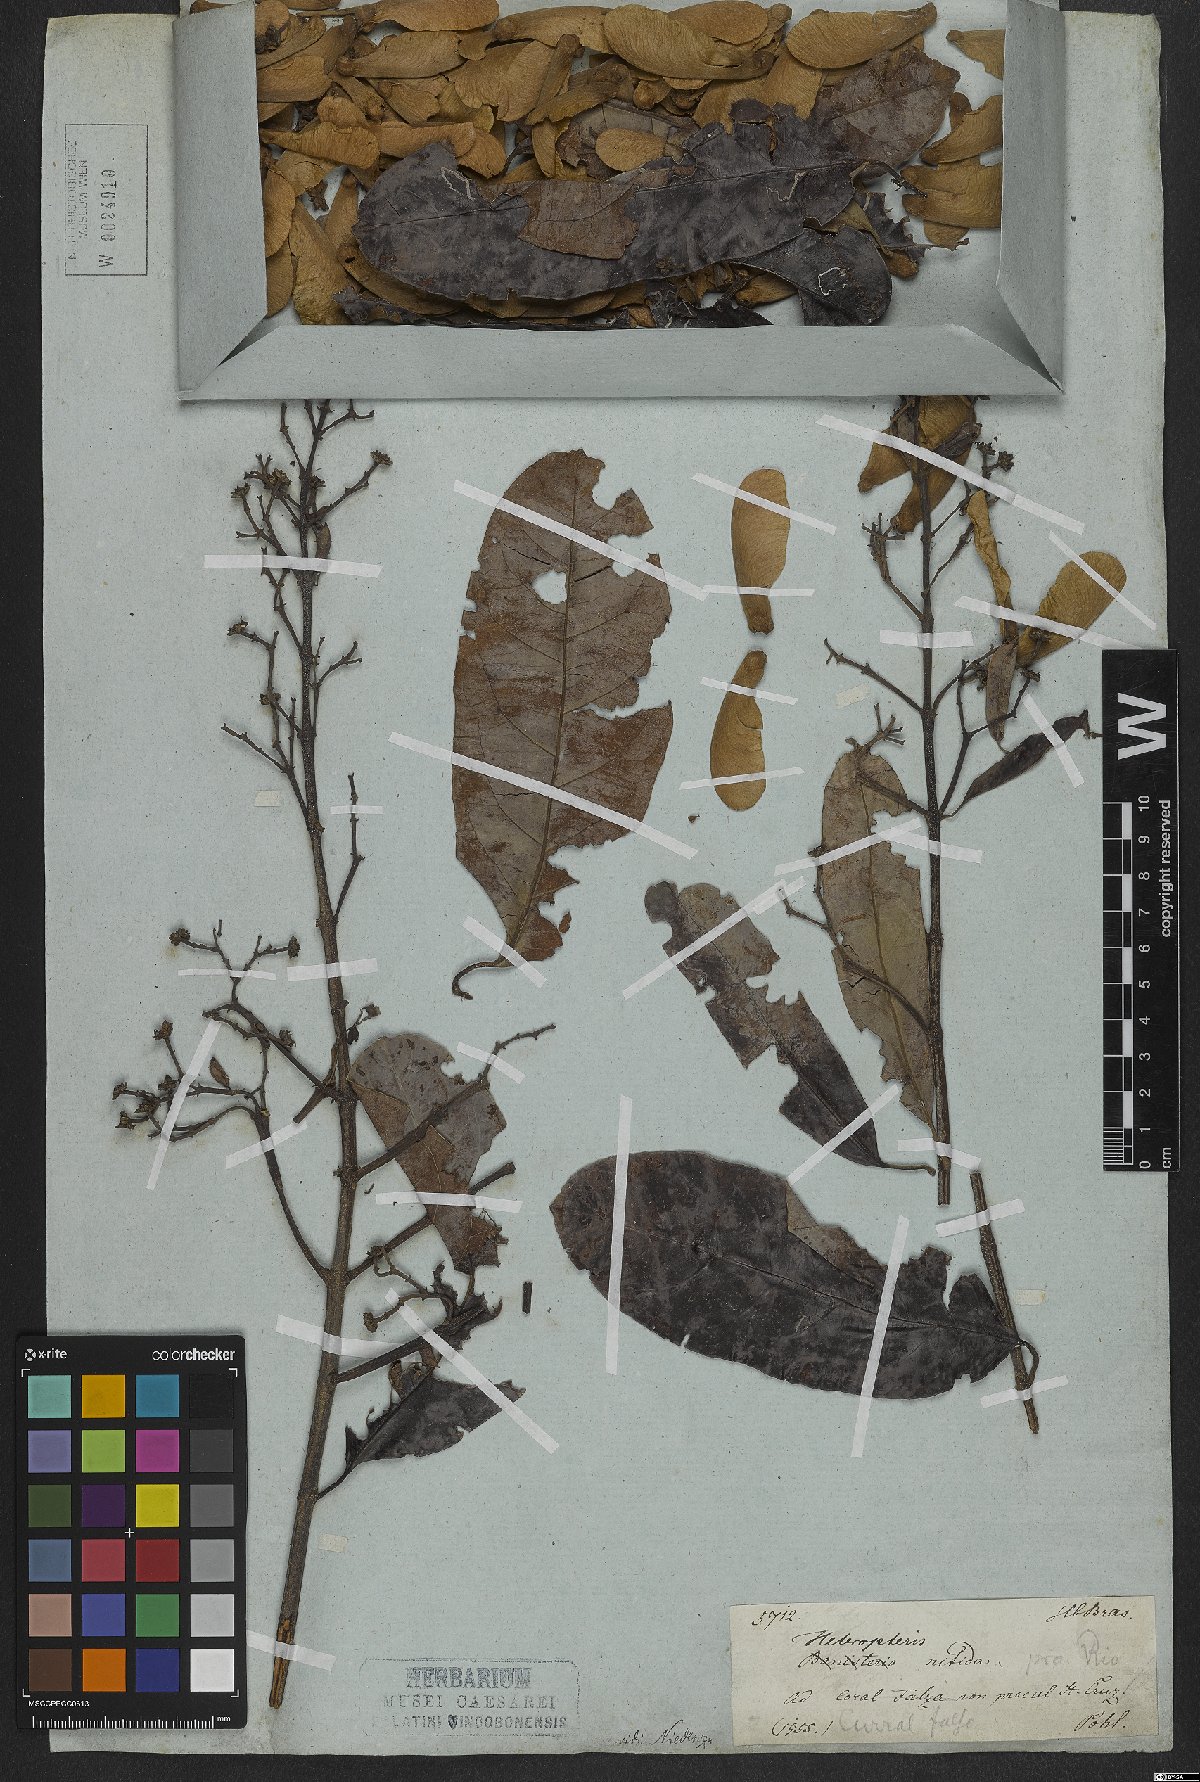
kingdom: Plantae
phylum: Tracheophyta
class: Magnoliopsida
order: Malpighiales
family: Malpighiaceae
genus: Heteropterys
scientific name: Heteropterys nitida
